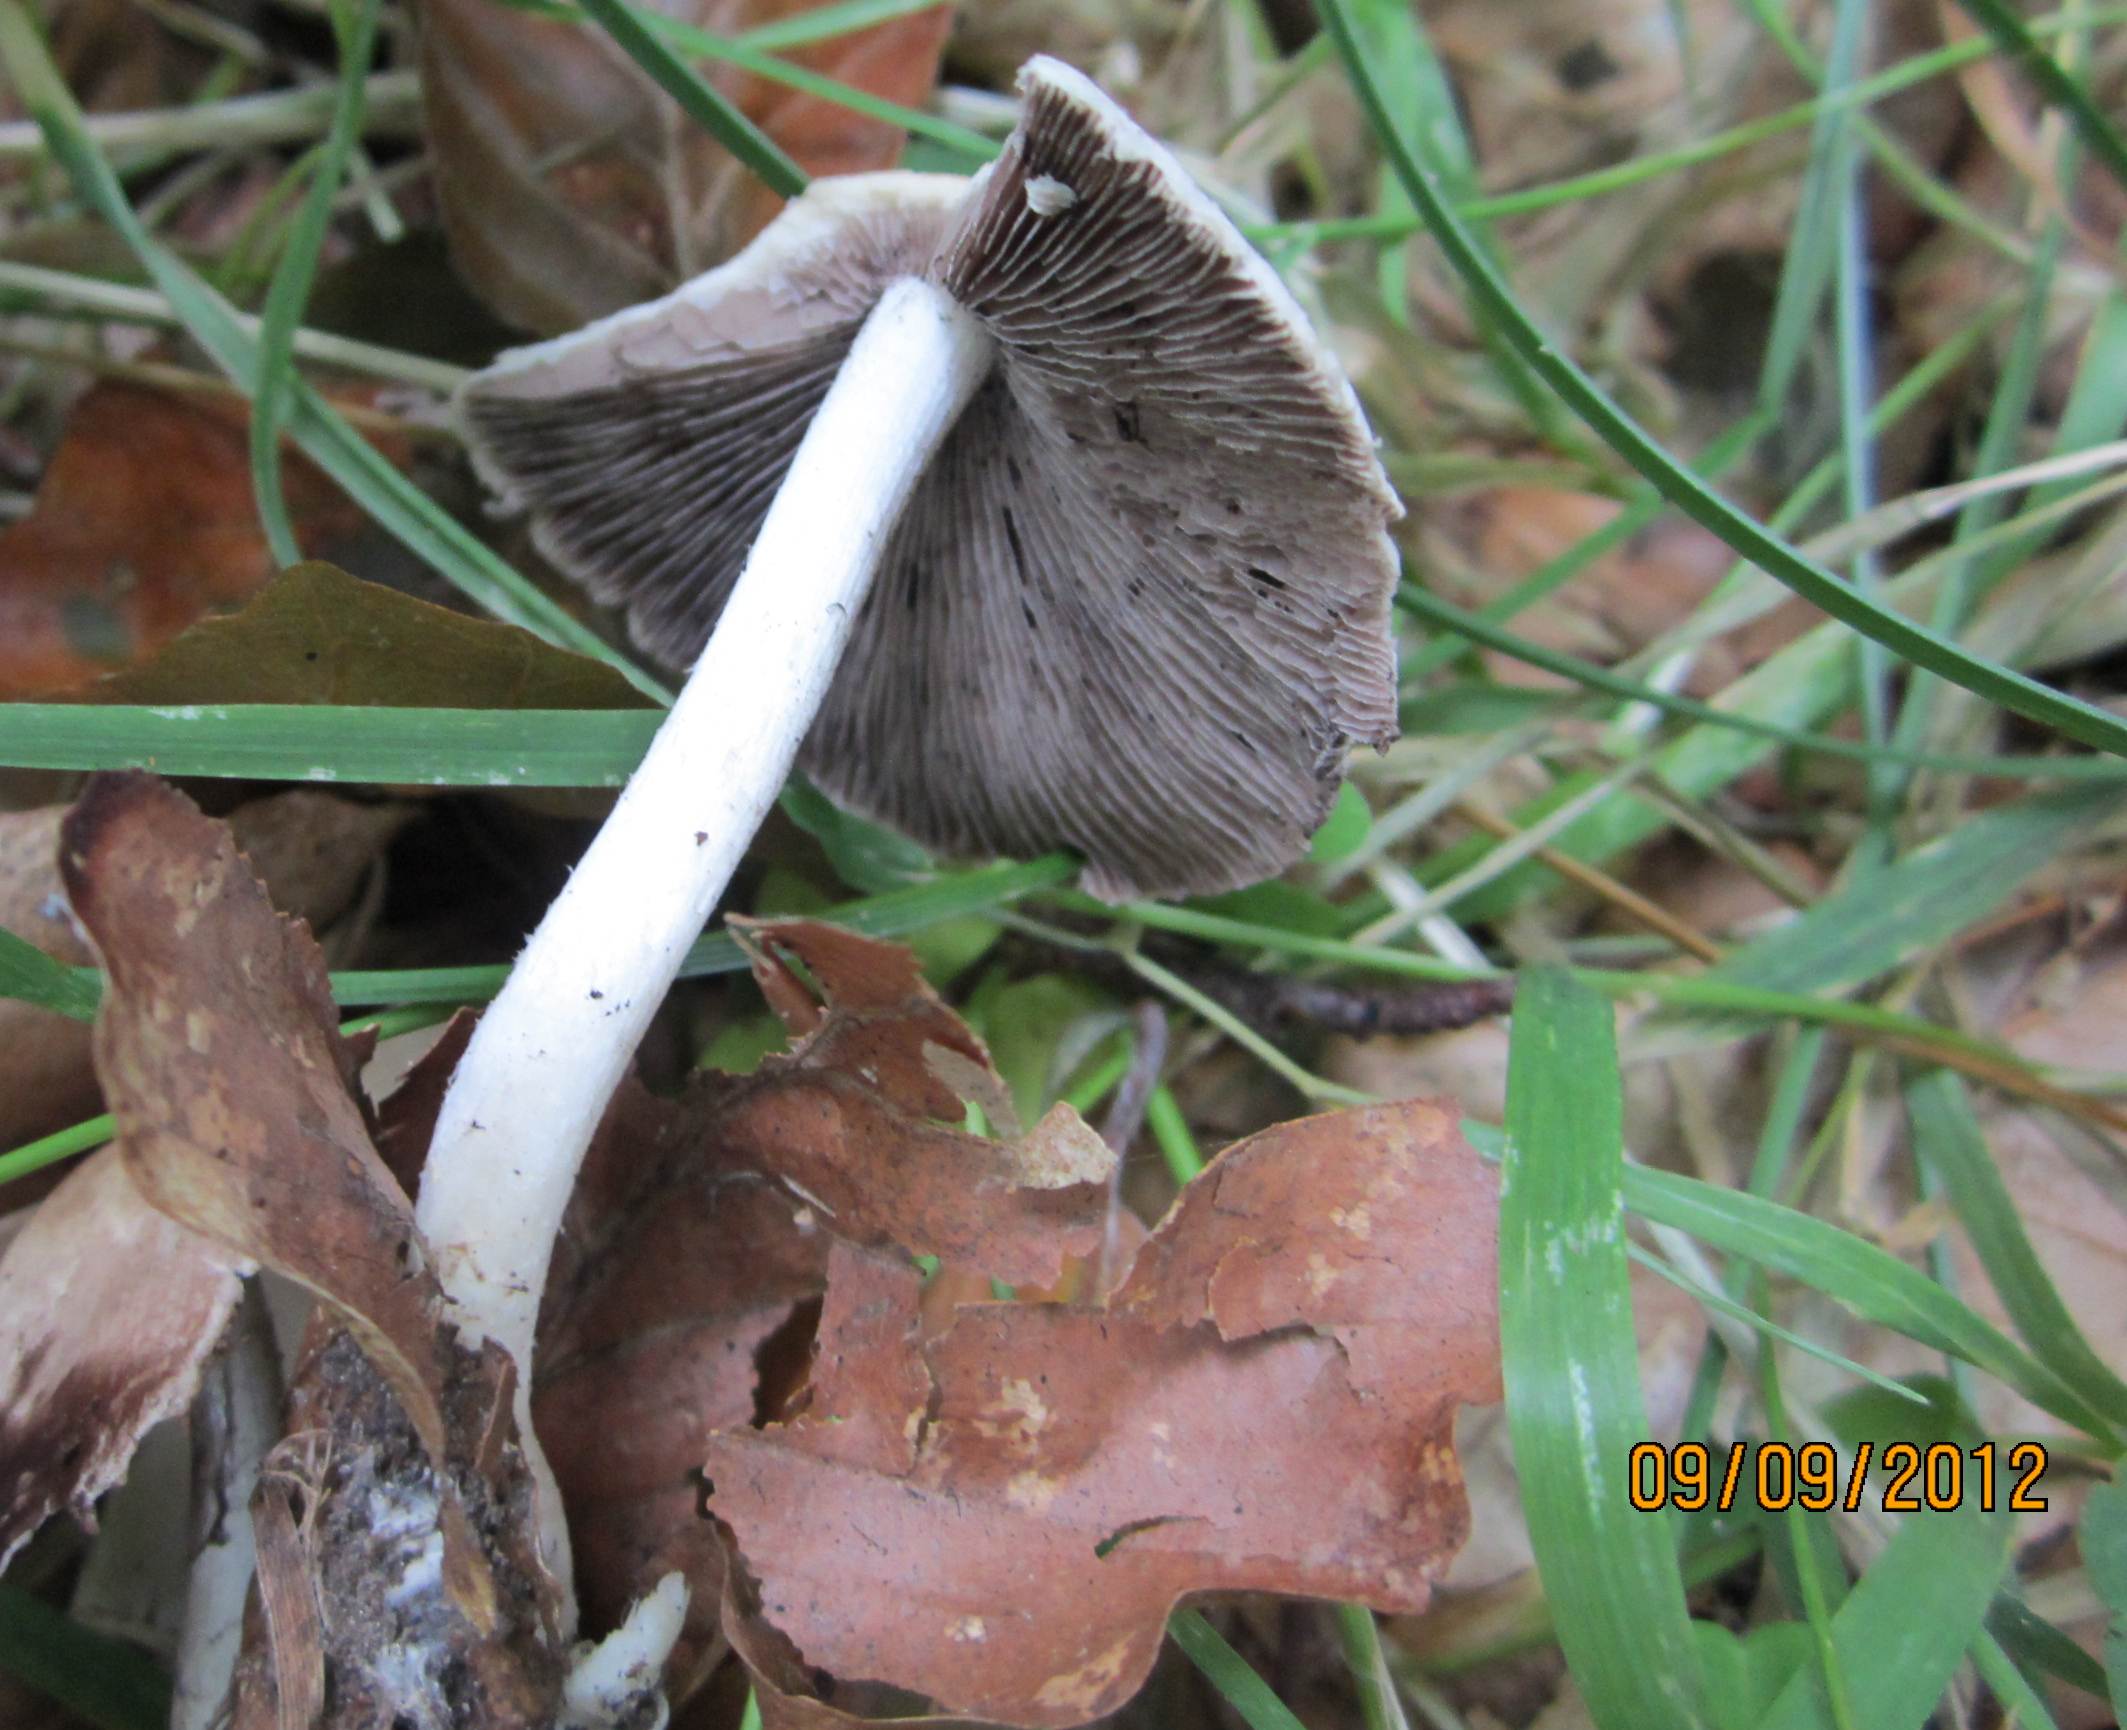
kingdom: Fungi
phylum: Basidiomycota
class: Agaricomycetes
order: Agaricales
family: Psathyrellaceae
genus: Candolleomyces
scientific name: Candolleomyces candolleanus
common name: Candolles mørkhat
